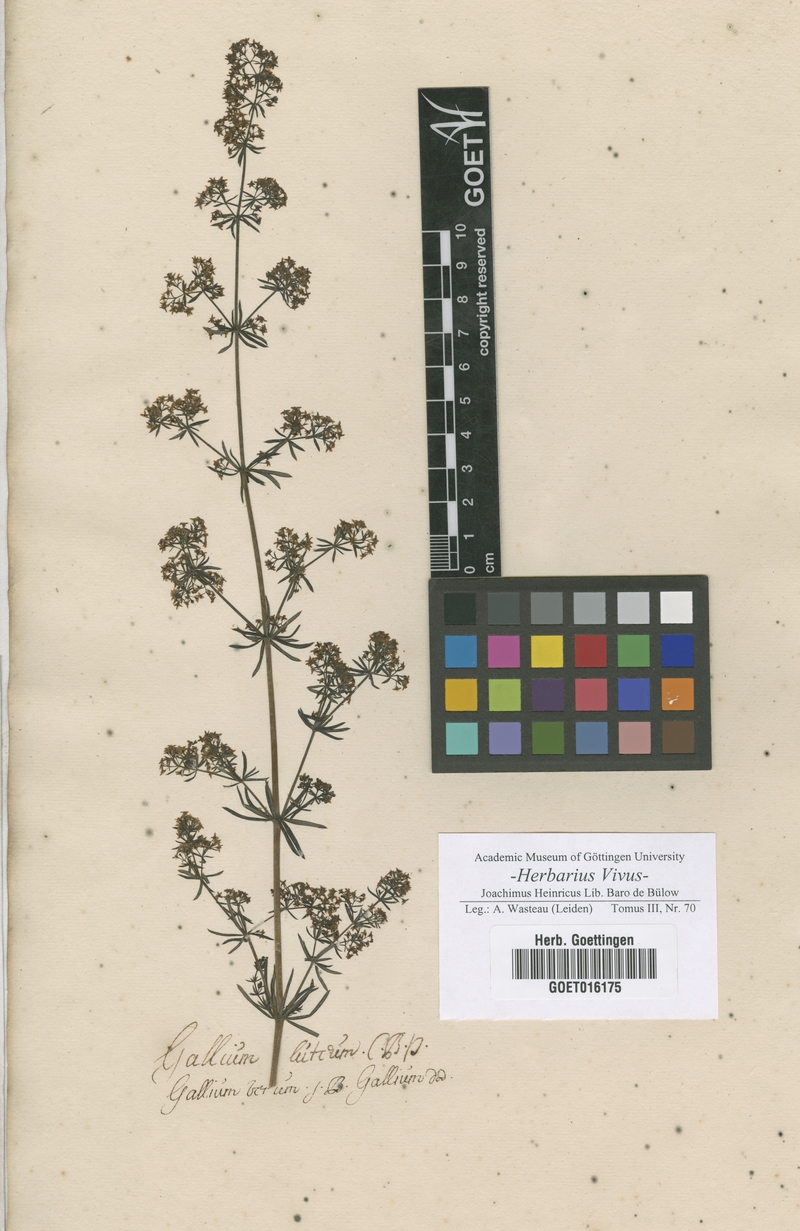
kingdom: Plantae
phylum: Tracheophyta
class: Magnoliopsida
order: Gentianales
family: Rubiaceae
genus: Galium
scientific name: Galium verum
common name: Lady's bedstraw
